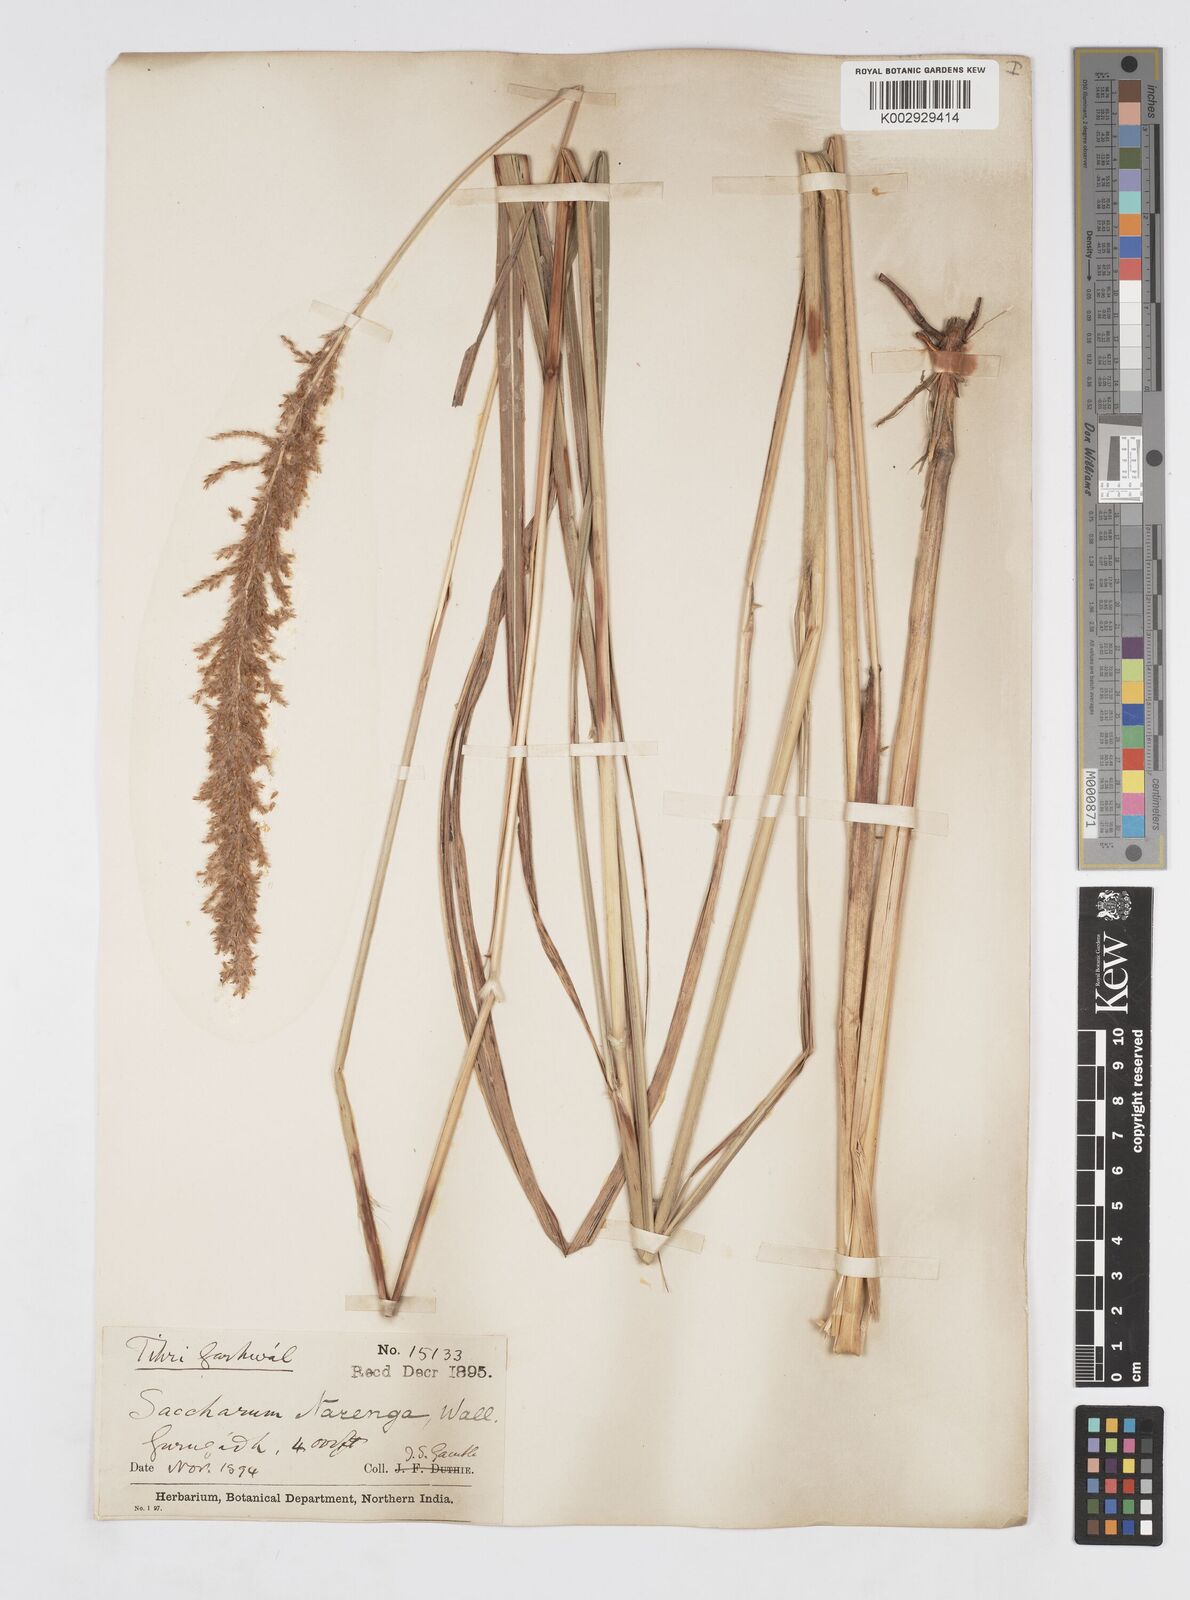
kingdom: Plantae
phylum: Tracheophyta
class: Liliopsida
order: Poales
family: Poaceae
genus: Narenga
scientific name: Narenga porphyrocoma
